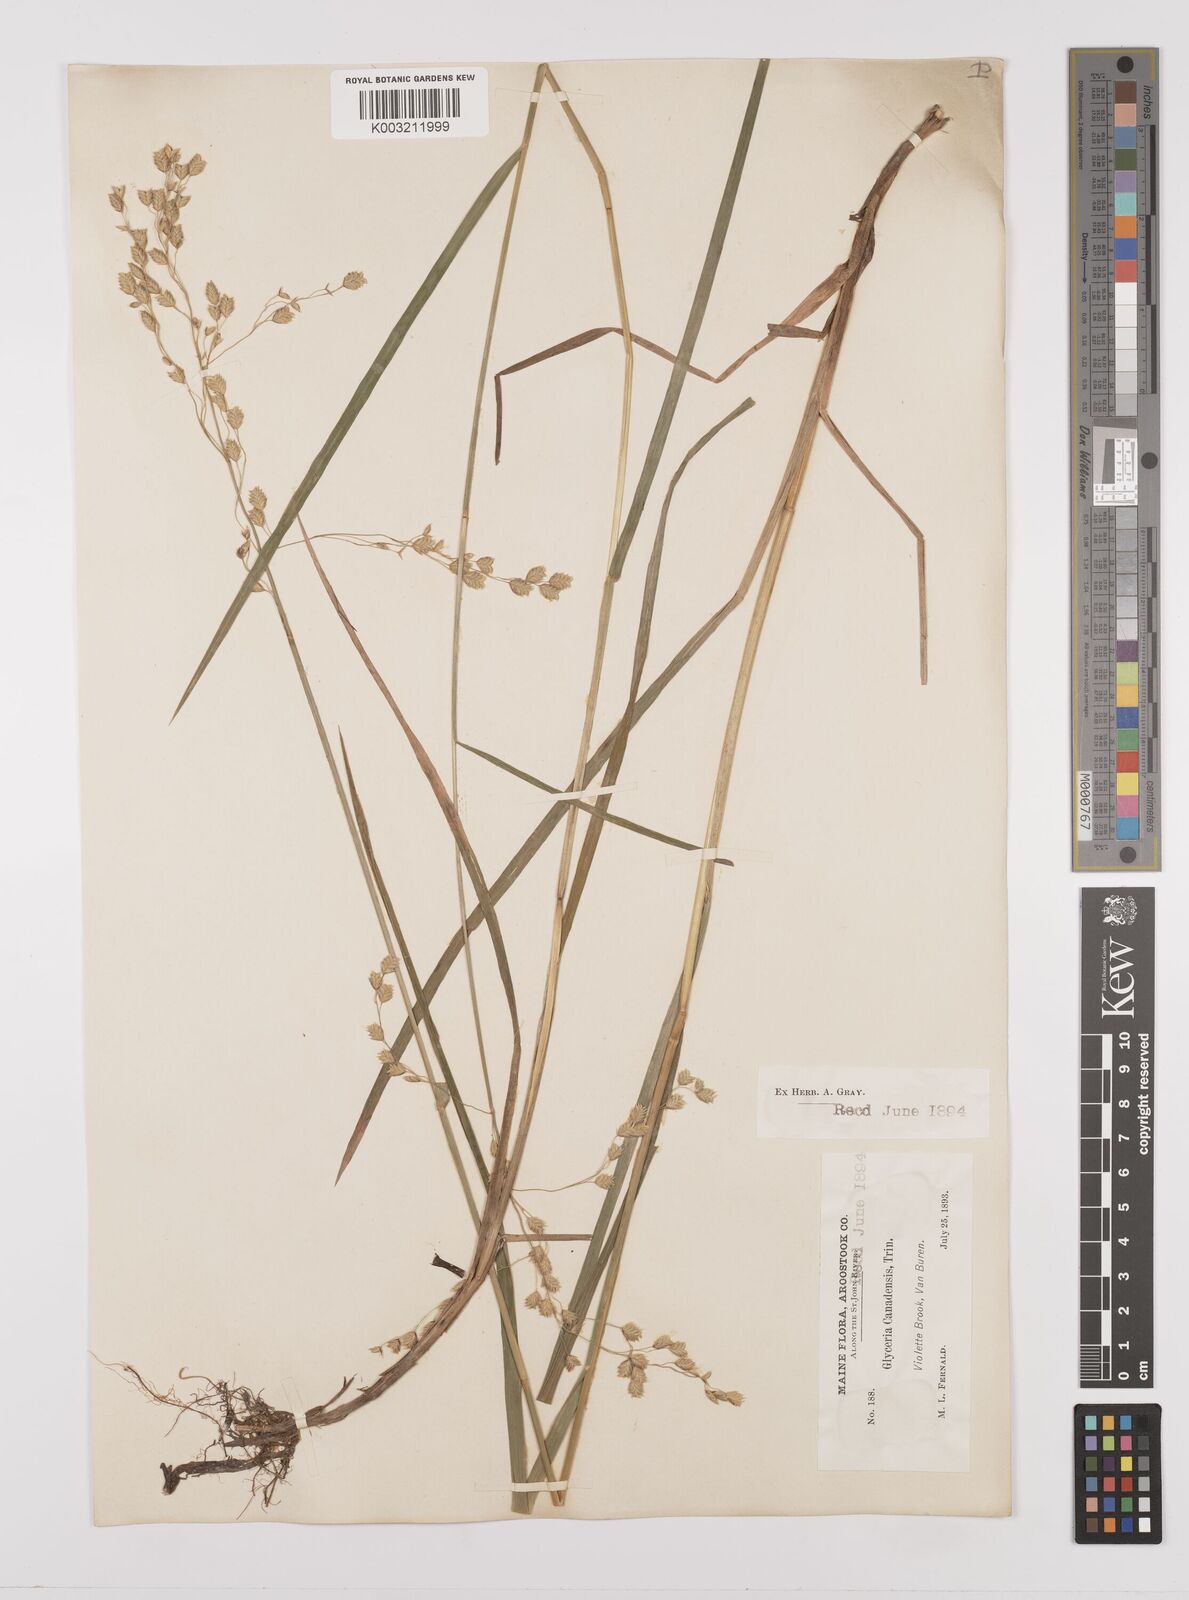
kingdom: Plantae
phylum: Tracheophyta
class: Liliopsida
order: Poales
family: Poaceae
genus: Glyceria
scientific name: Glyceria canadensis
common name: Canada mannagrass
